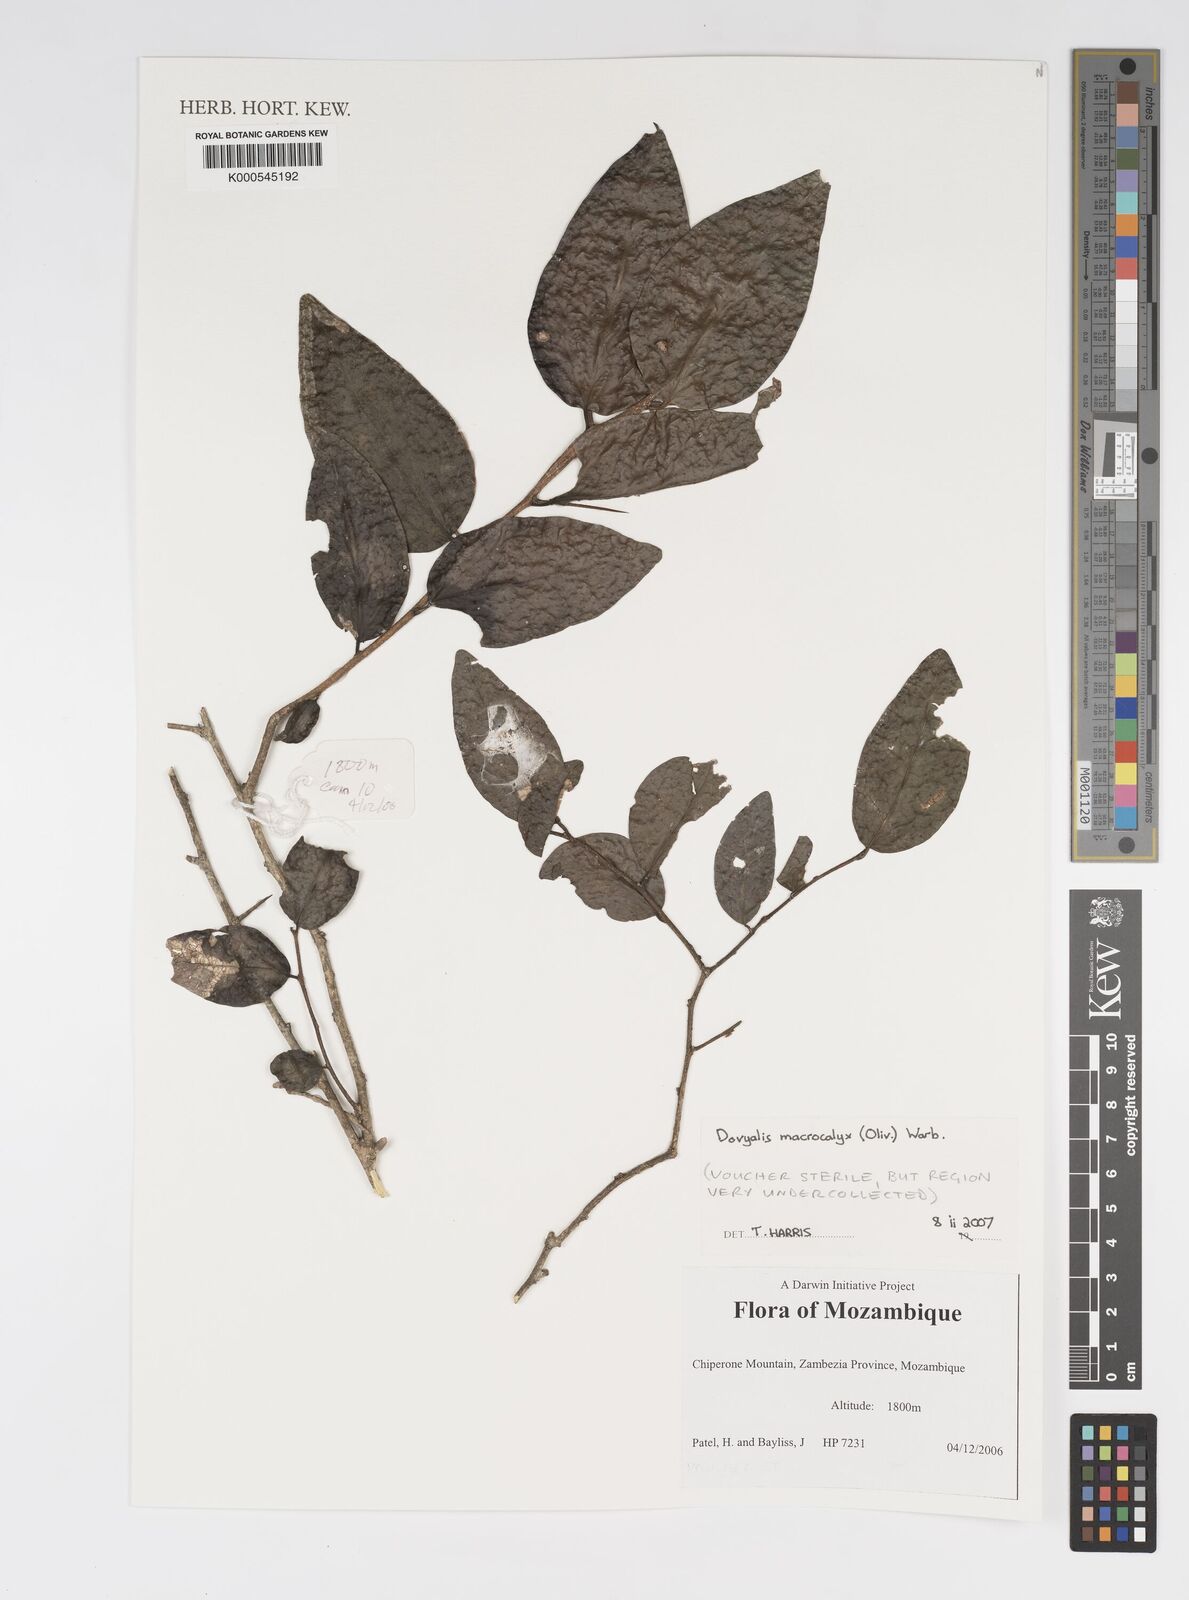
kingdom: Plantae
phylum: Tracheophyta
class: Magnoliopsida
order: Malpighiales
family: Salicaceae
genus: Dovyalis
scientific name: Dovyalis macrocalyx
